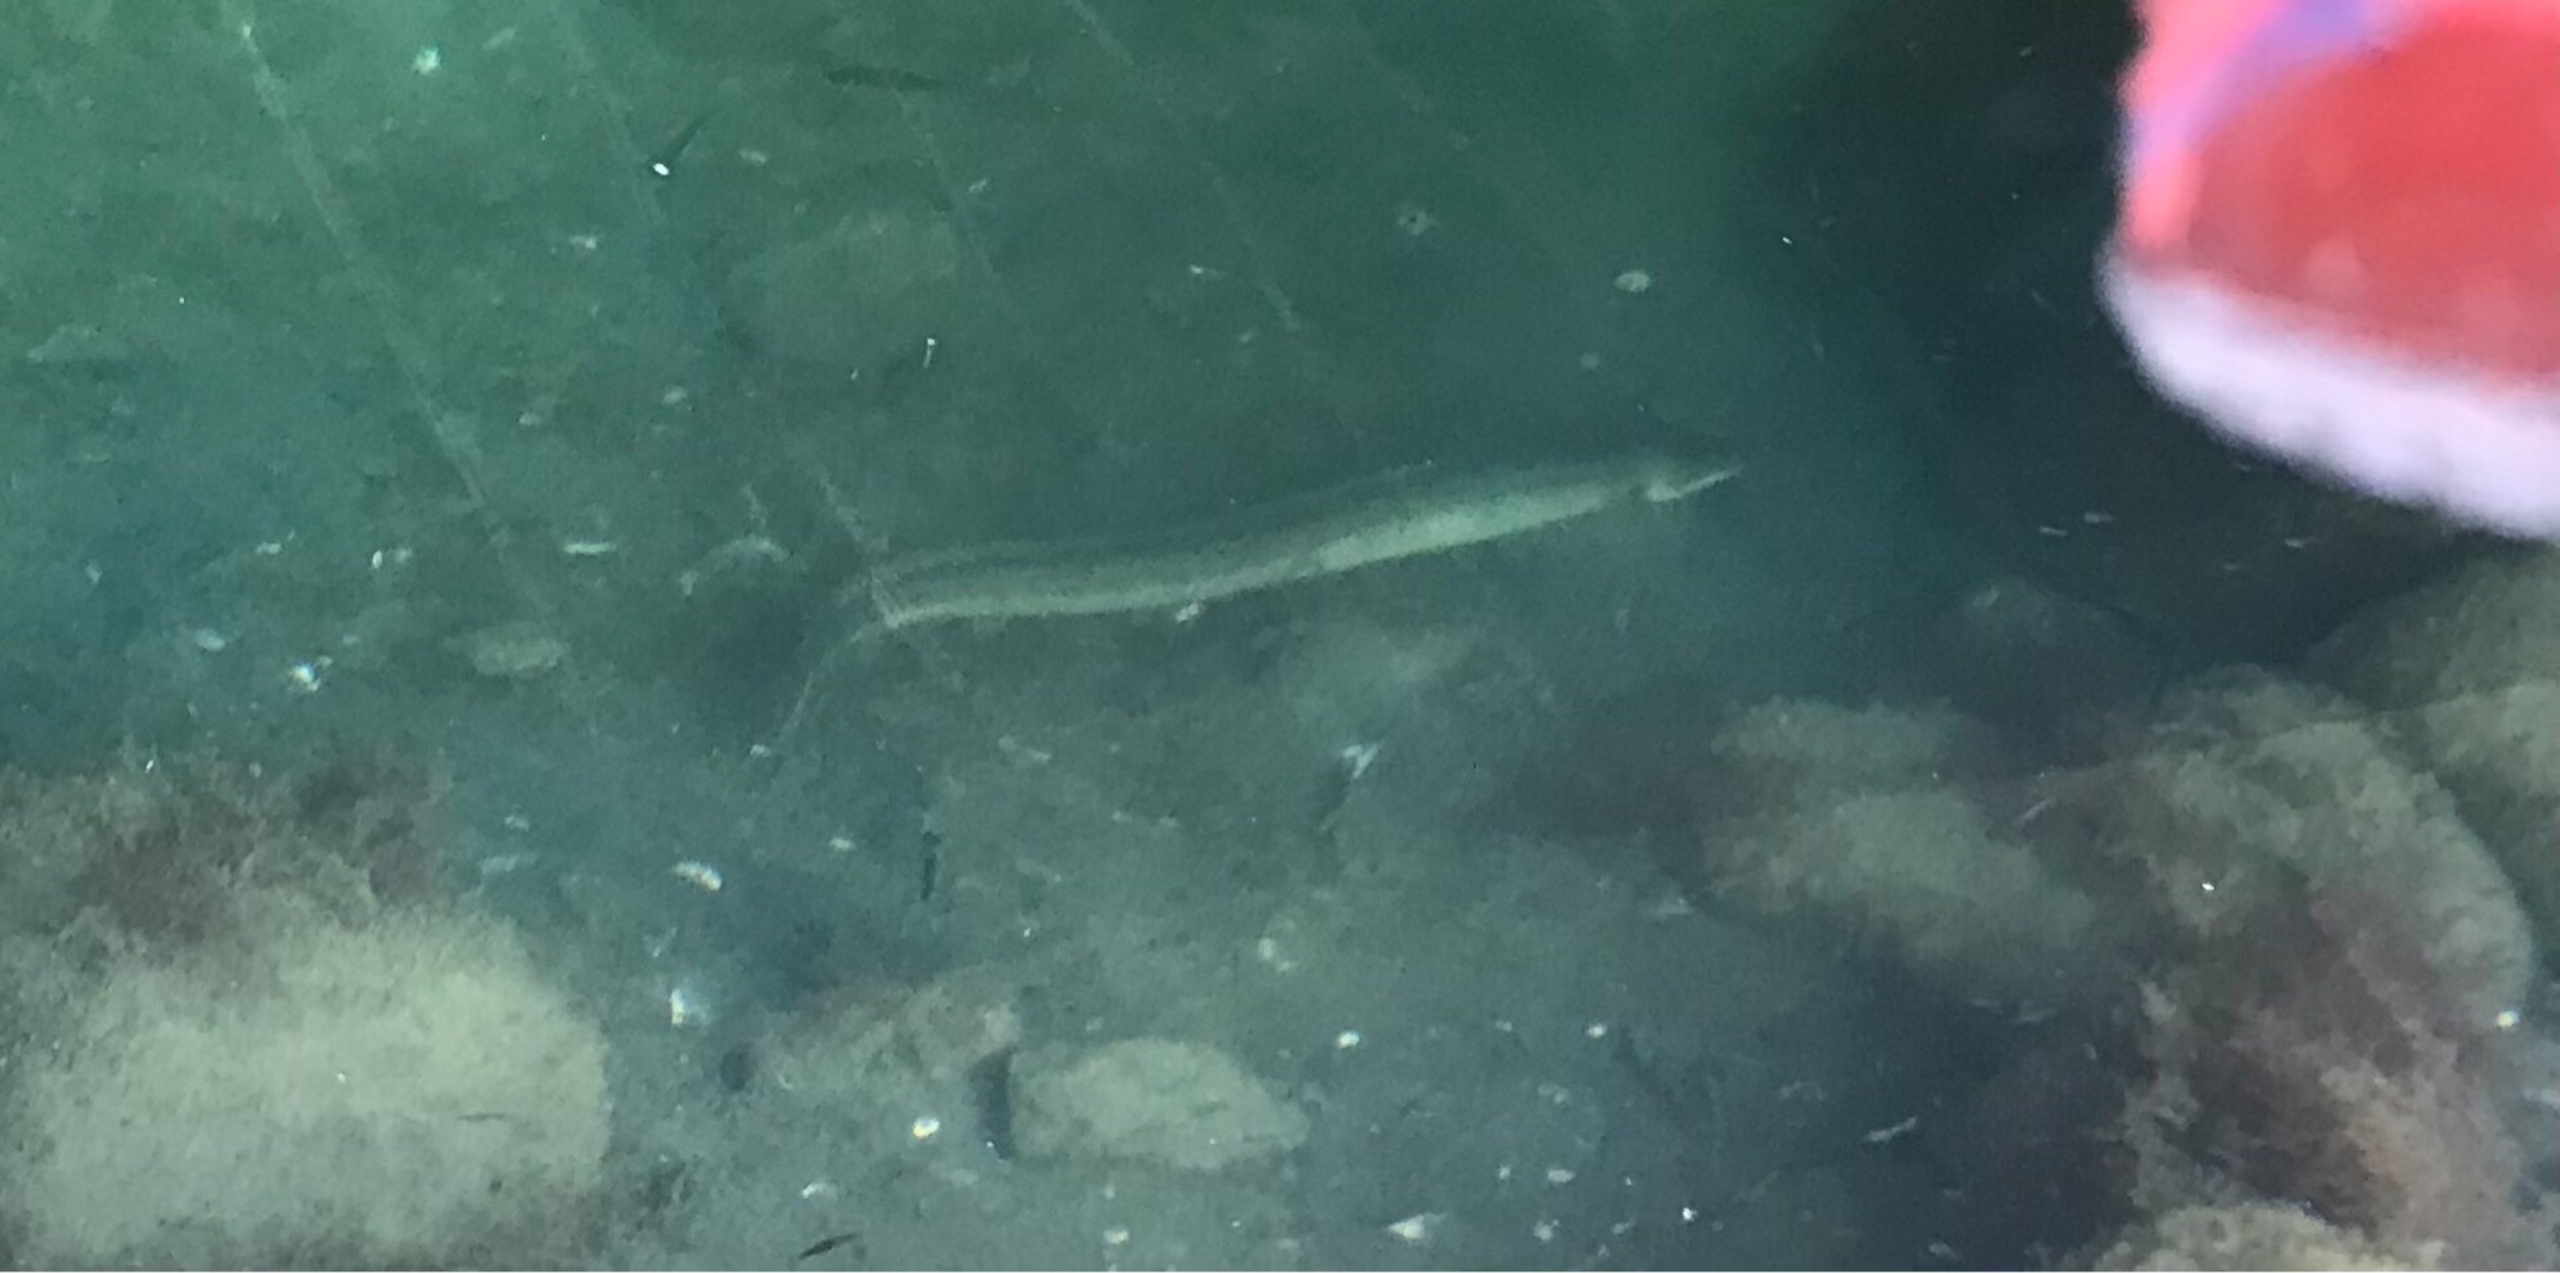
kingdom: Animalia
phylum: Chordata
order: Anguilliformes
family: Anguillidae
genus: Anguilla
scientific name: Anguilla anguilla
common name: Europæisk ål
